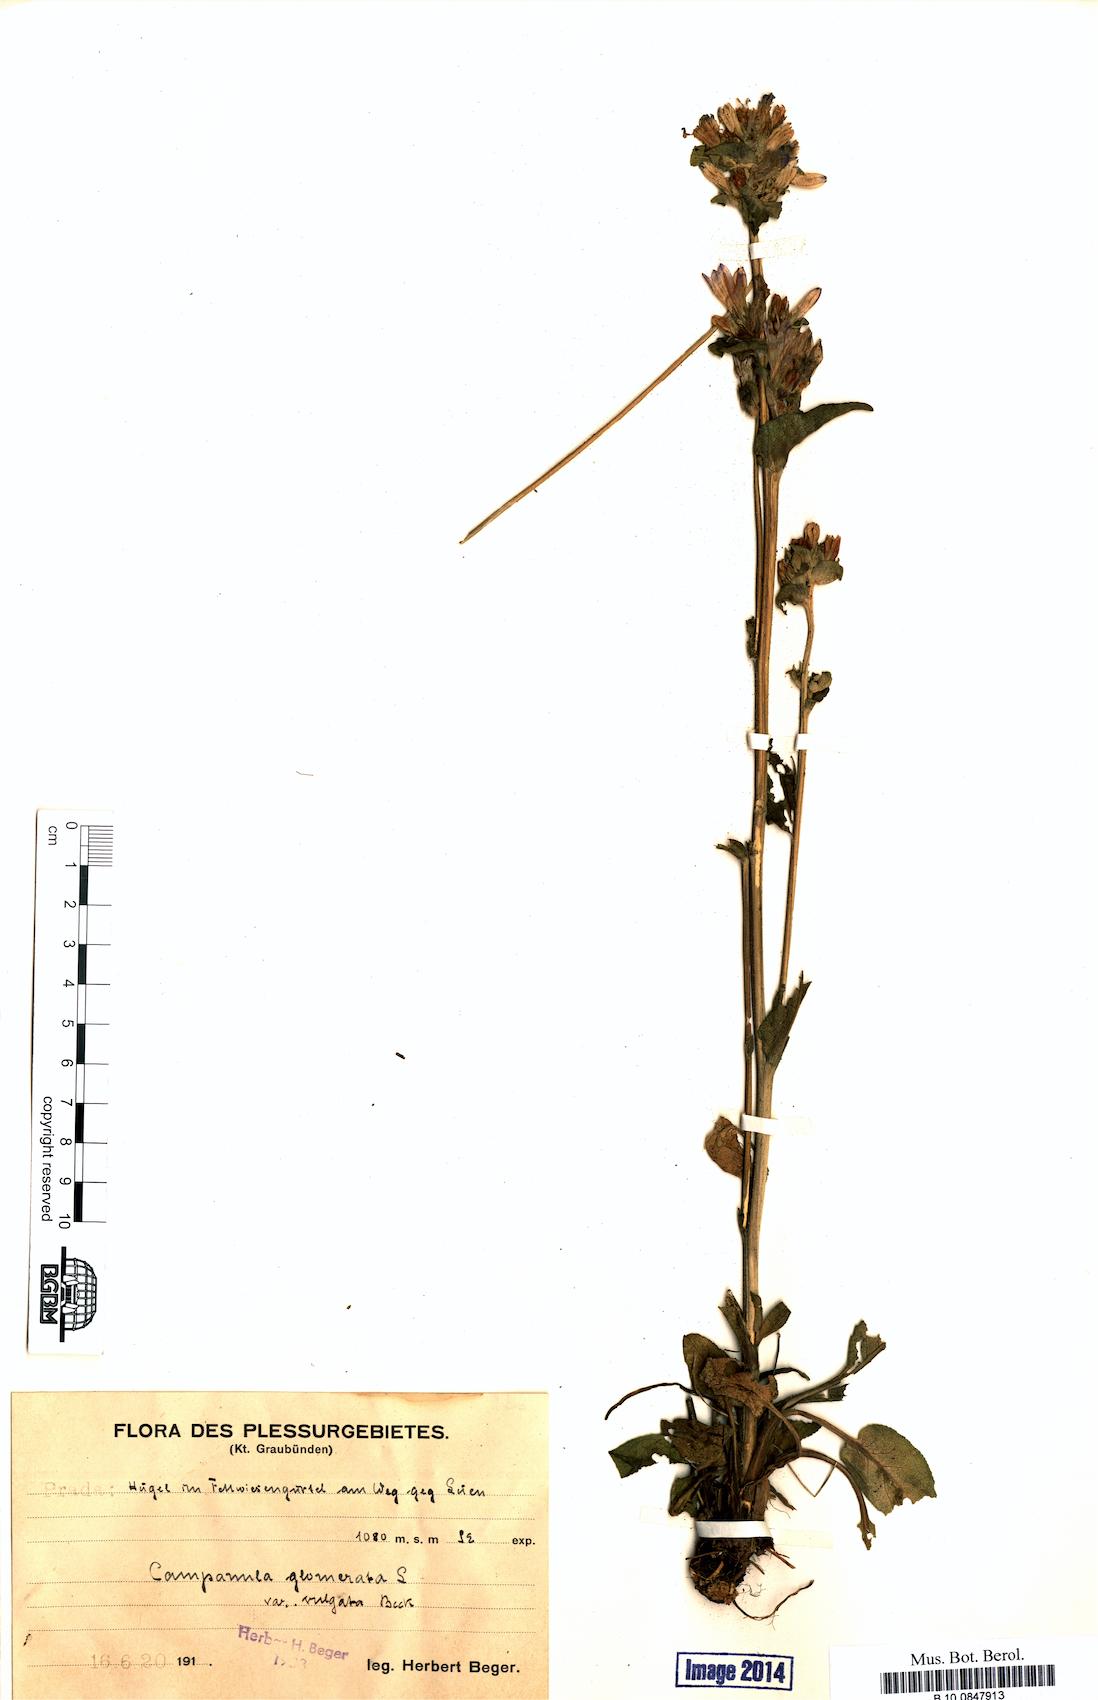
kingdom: Plantae
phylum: Tracheophyta
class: Magnoliopsida
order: Asterales
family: Campanulaceae
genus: Campanula
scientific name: Campanula glomerata
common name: Clustered bellflower
